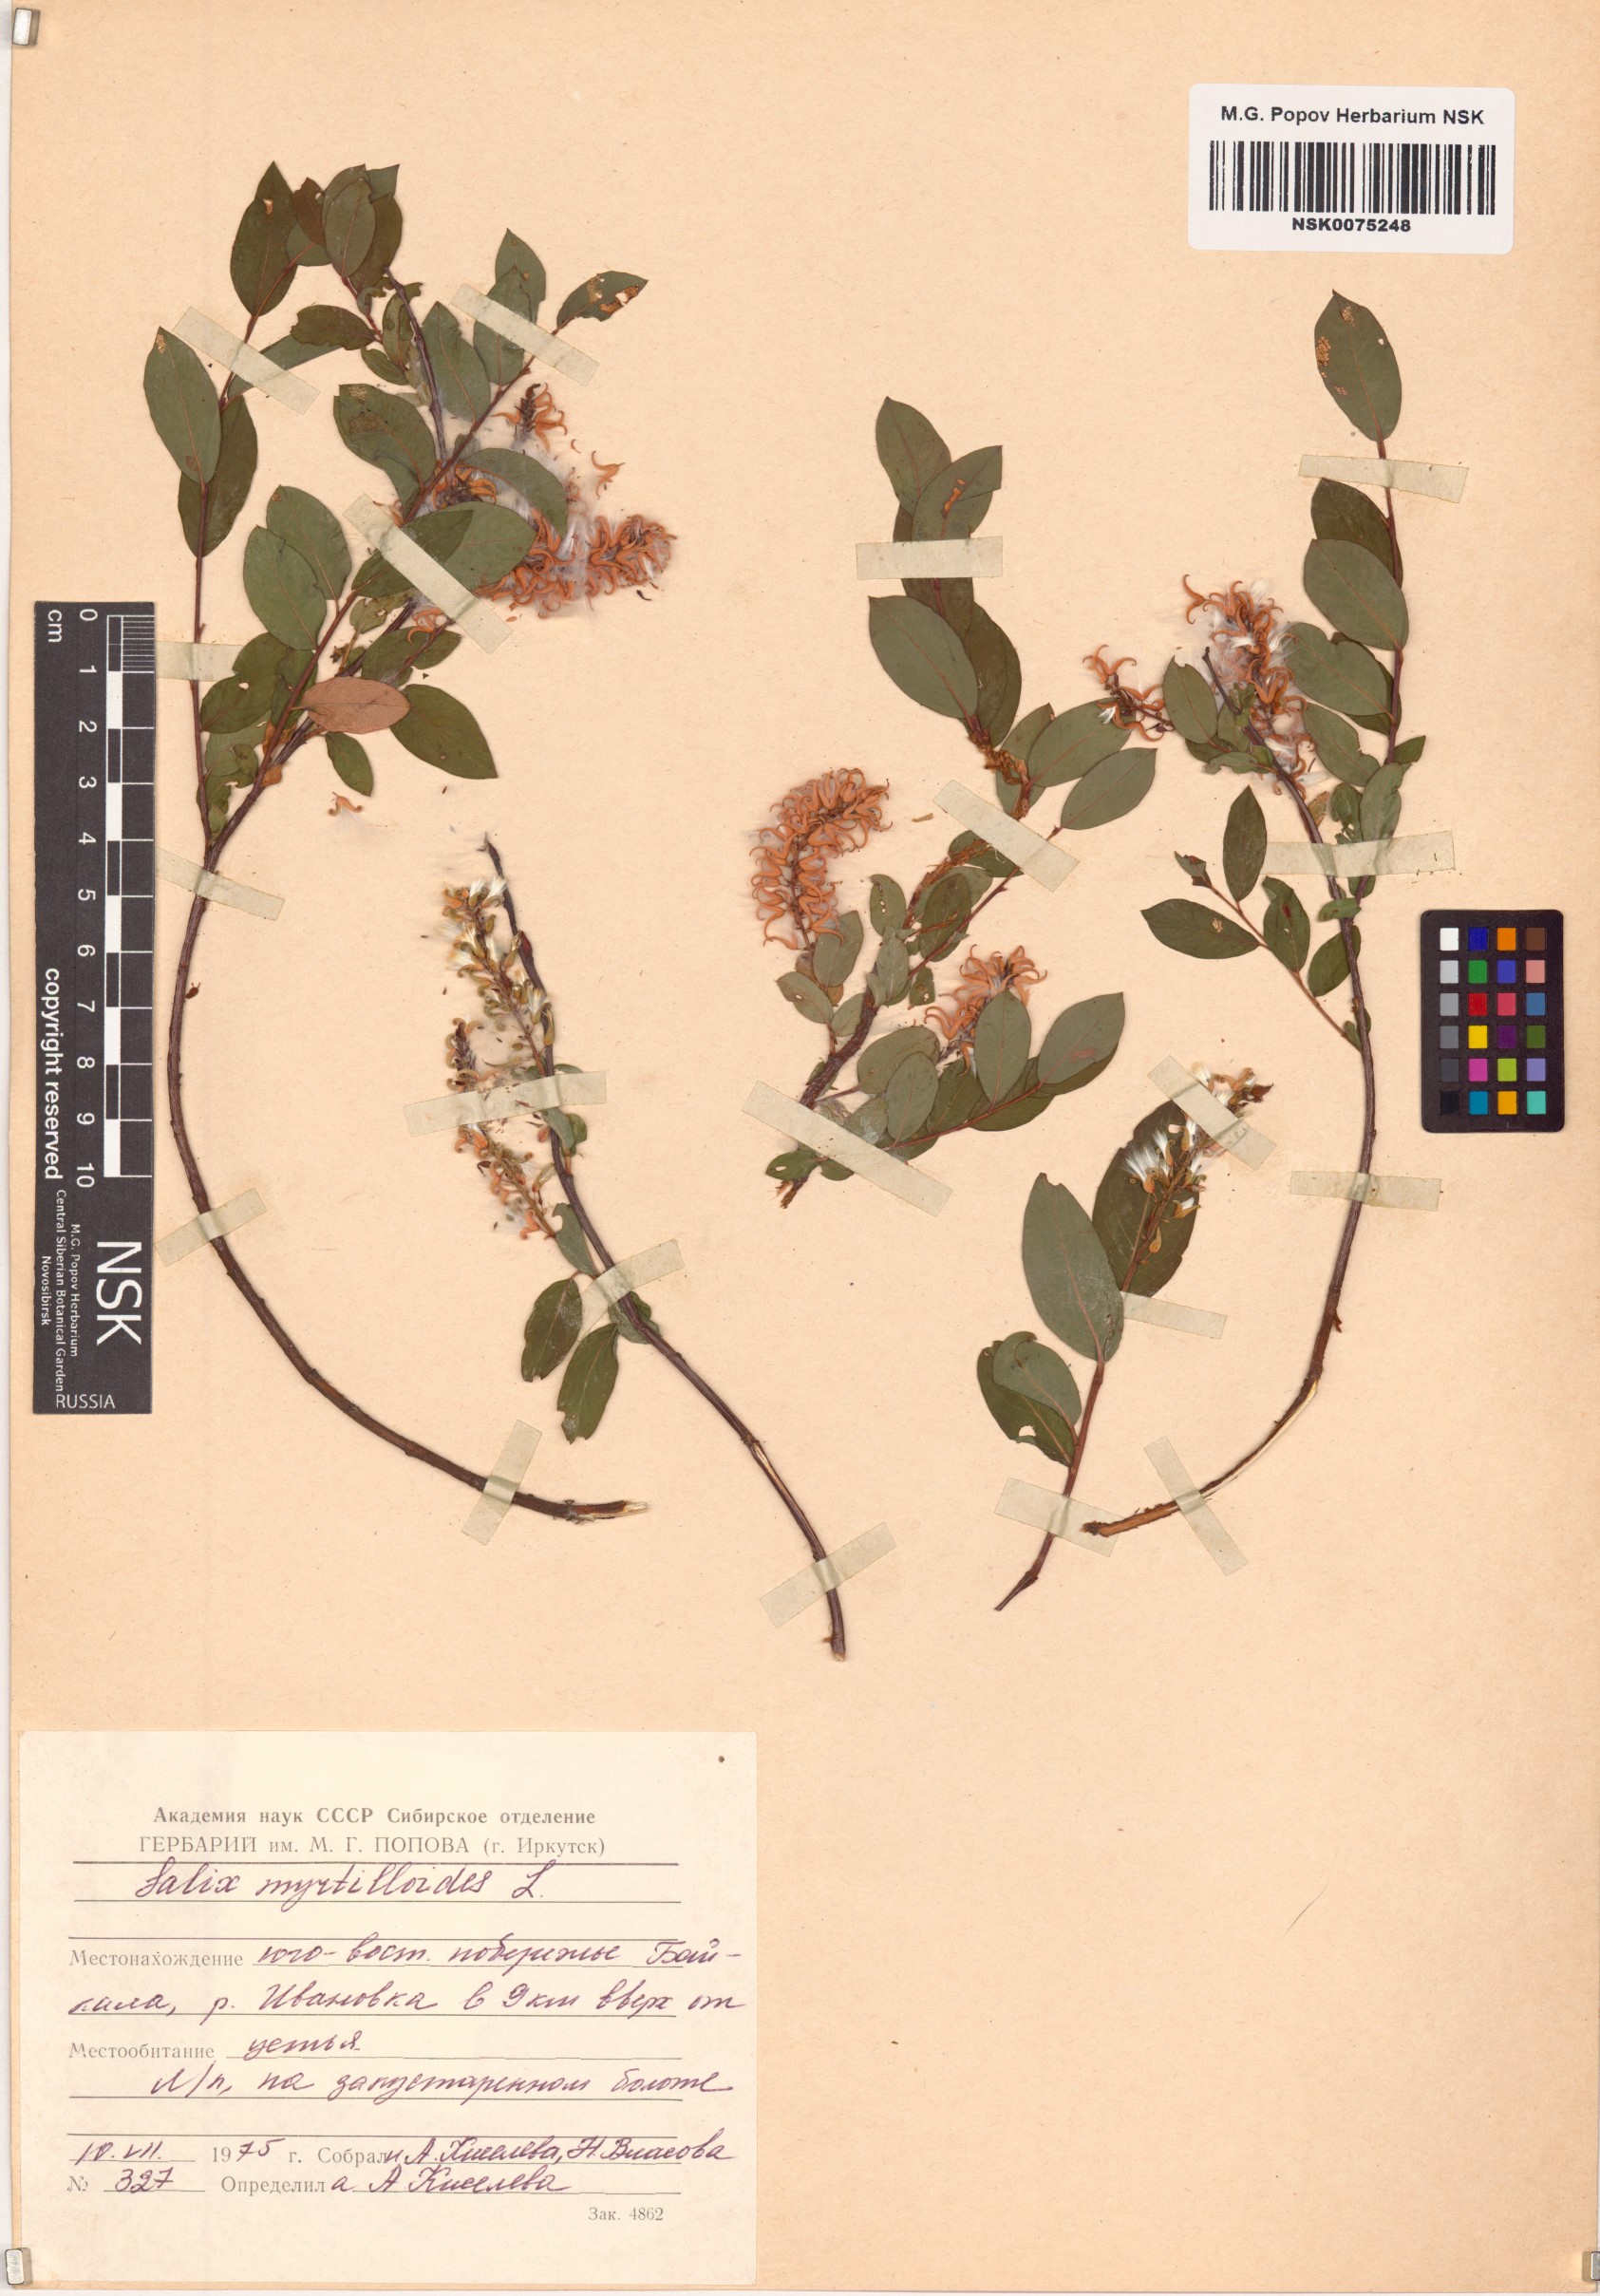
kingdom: Plantae
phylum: Tracheophyta
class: Magnoliopsida
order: Malpighiales
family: Salicaceae
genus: Salix
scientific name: Salix myrtilloides
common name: Myrtle-leaved willow
